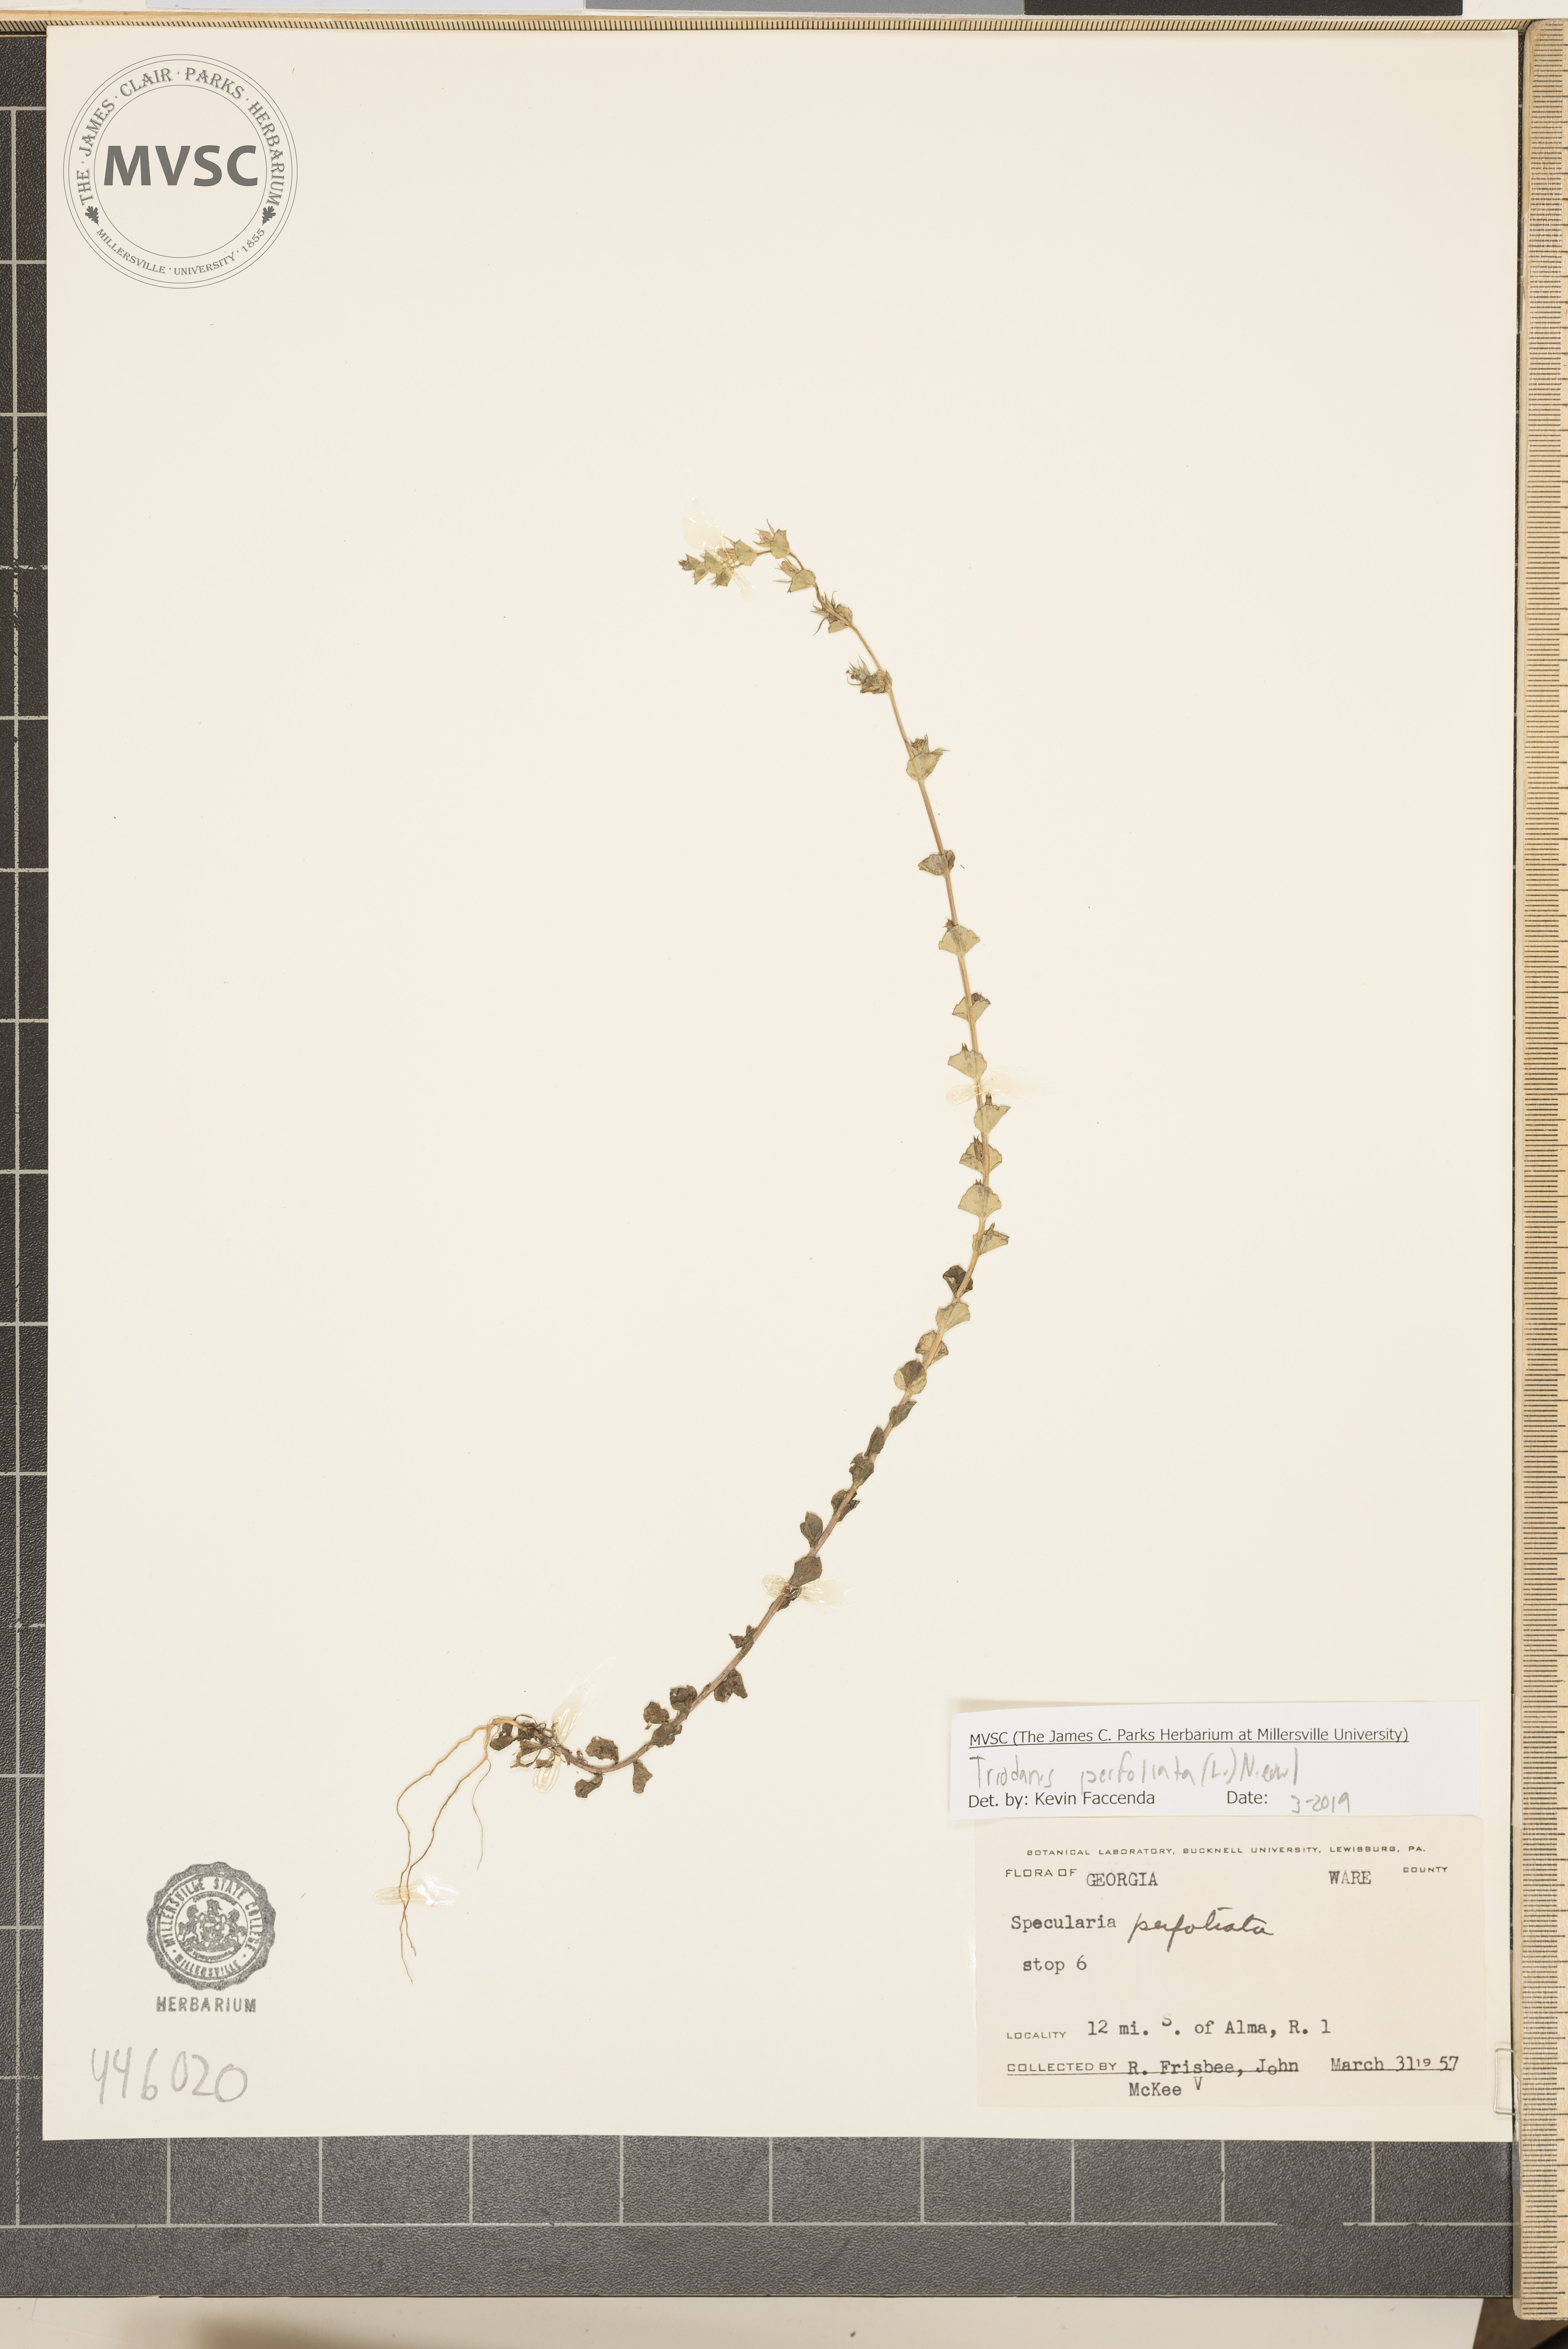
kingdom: Plantae
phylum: Tracheophyta
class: Magnoliopsida
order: Asterales
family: Campanulaceae
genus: Triodanis
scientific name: Triodanis perfoliata
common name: Clasping venus' looking-glass
